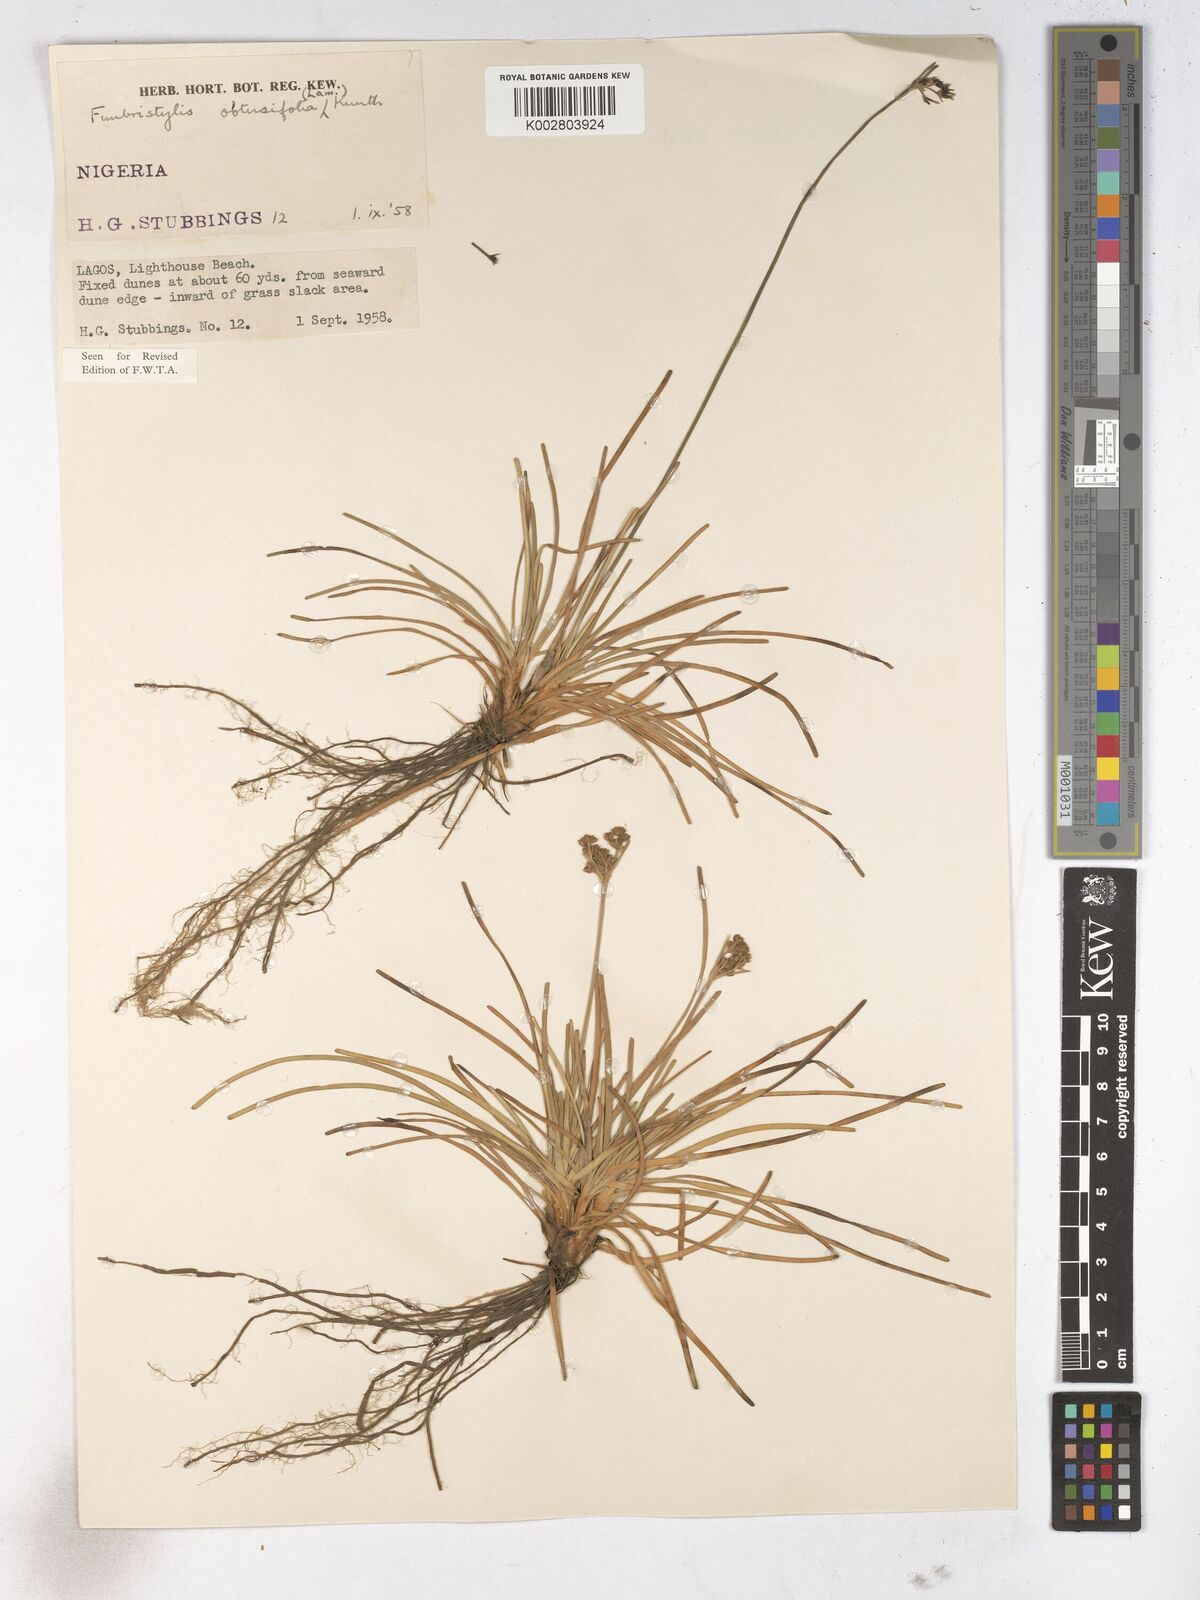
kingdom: Plantae
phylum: Tracheophyta
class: Liliopsida
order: Poales
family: Cyperaceae
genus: Fimbristylis
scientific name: Fimbristylis cymosa
